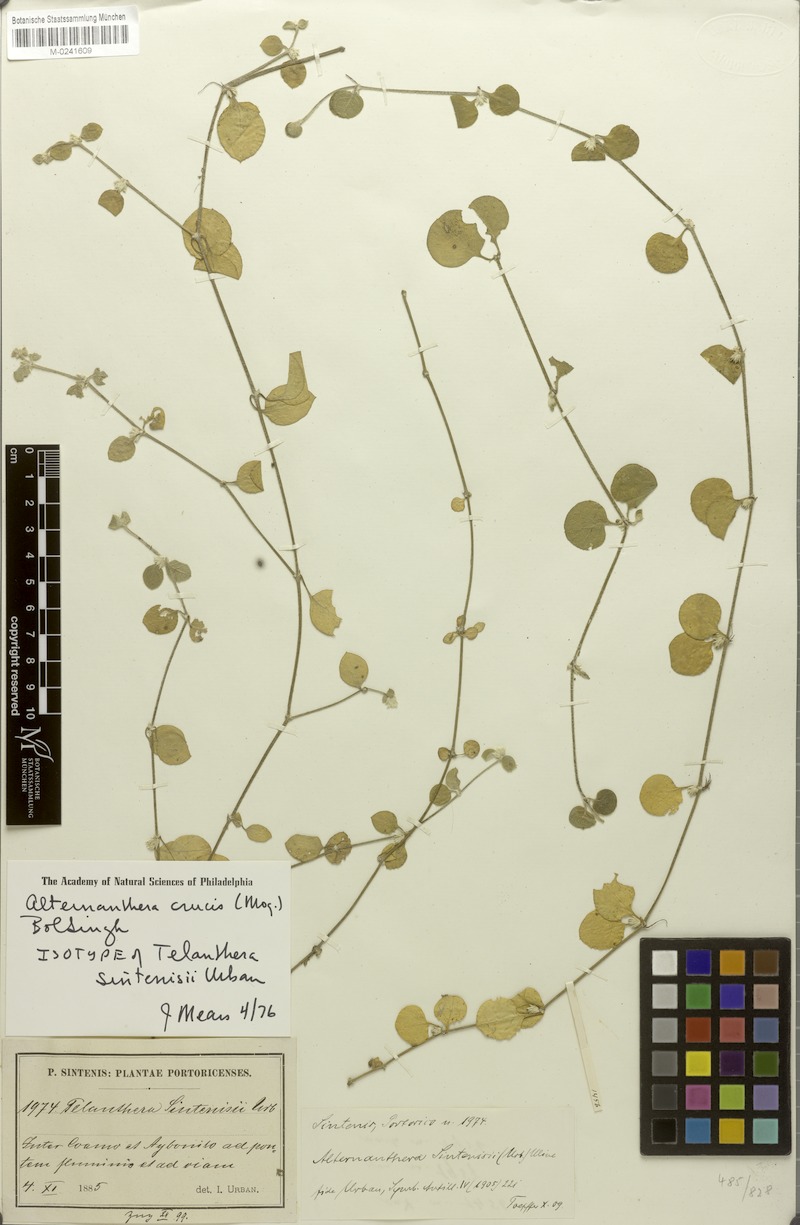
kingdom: Plantae
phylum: Tracheophyta
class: Magnoliopsida
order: Caryophyllales
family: Amaranthaceae
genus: Alternanthera
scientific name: Alternanthera crucis
